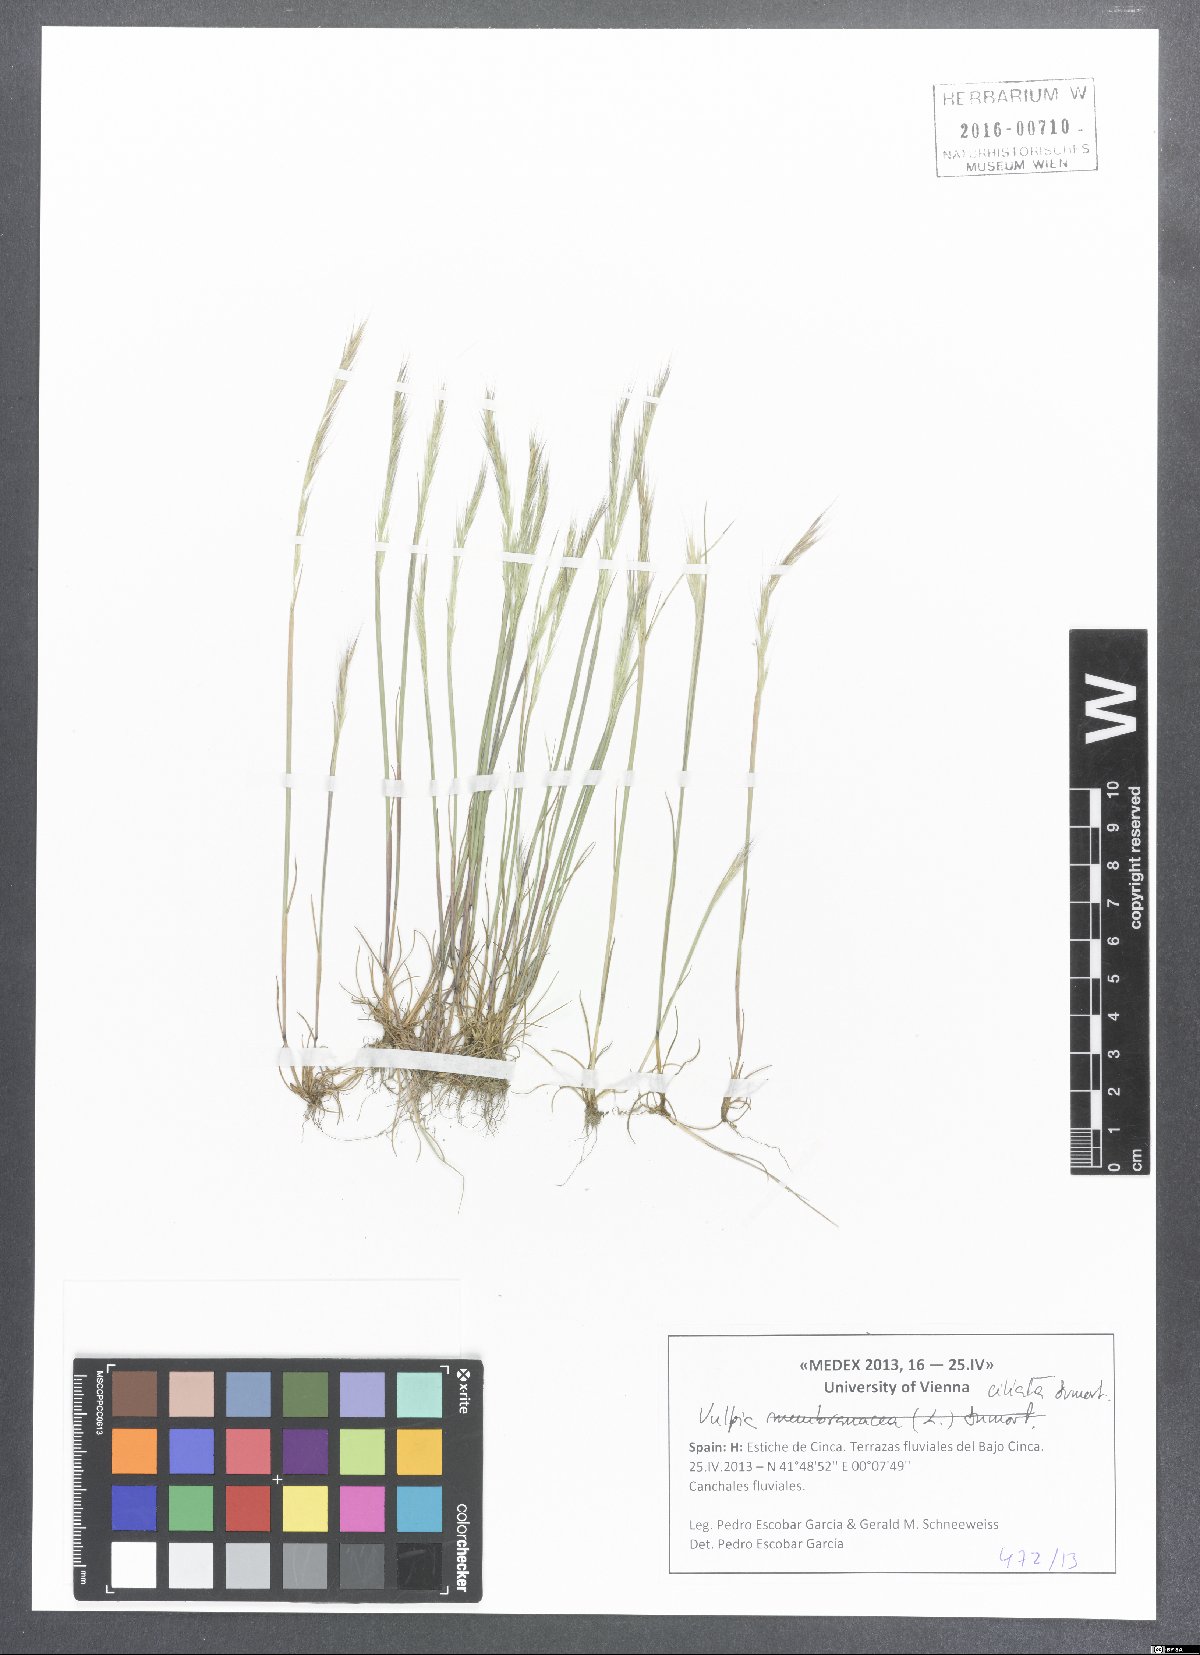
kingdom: Plantae
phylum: Tracheophyta
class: Liliopsida
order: Poales
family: Poaceae
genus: Festuca
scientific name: Festuca ambigua
